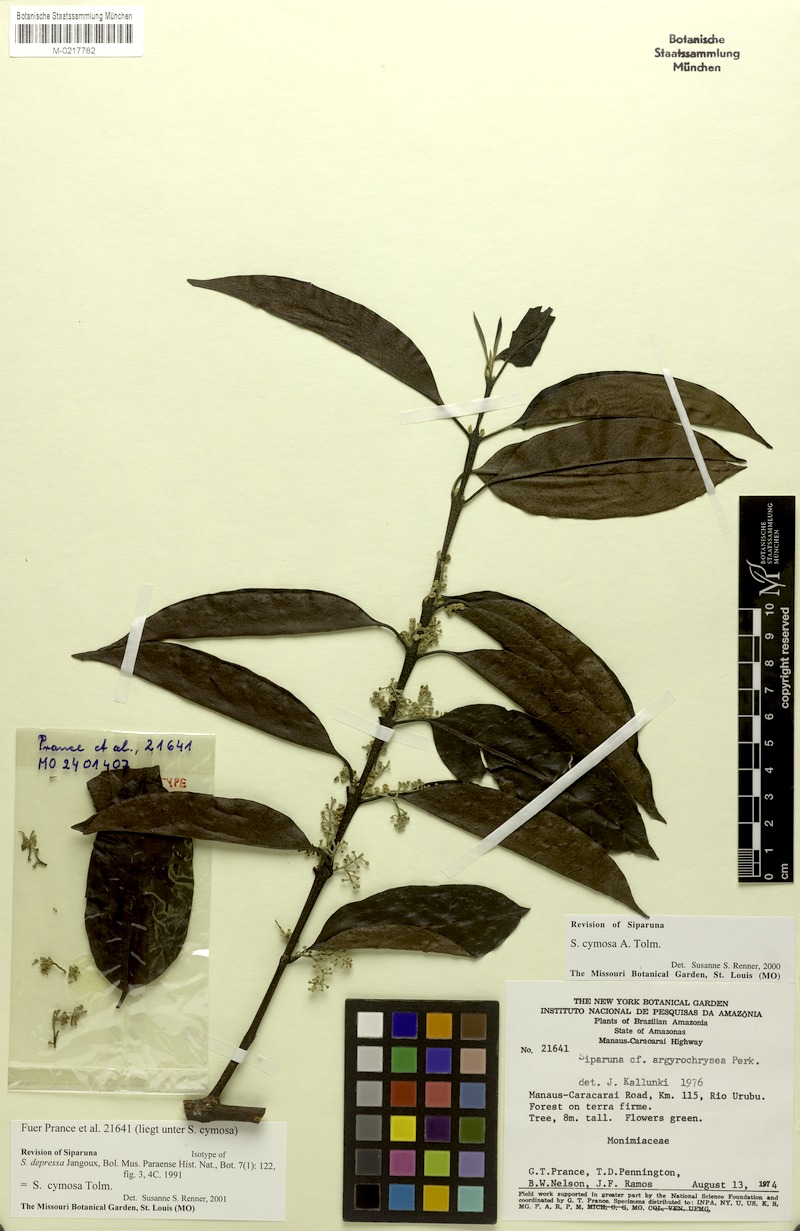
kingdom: Plantae
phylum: Tracheophyta
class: Magnoliopsida
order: Laurales
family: Siparunaceae
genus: Siparuna
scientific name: Siparuna cymosa
